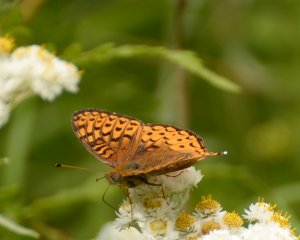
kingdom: Animalia
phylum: Arthropoda
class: Insecta
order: Lepidoptera
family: Nymphalidae
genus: Speyeria
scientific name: Speyeria atlantis
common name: Atlantis Fritillary
